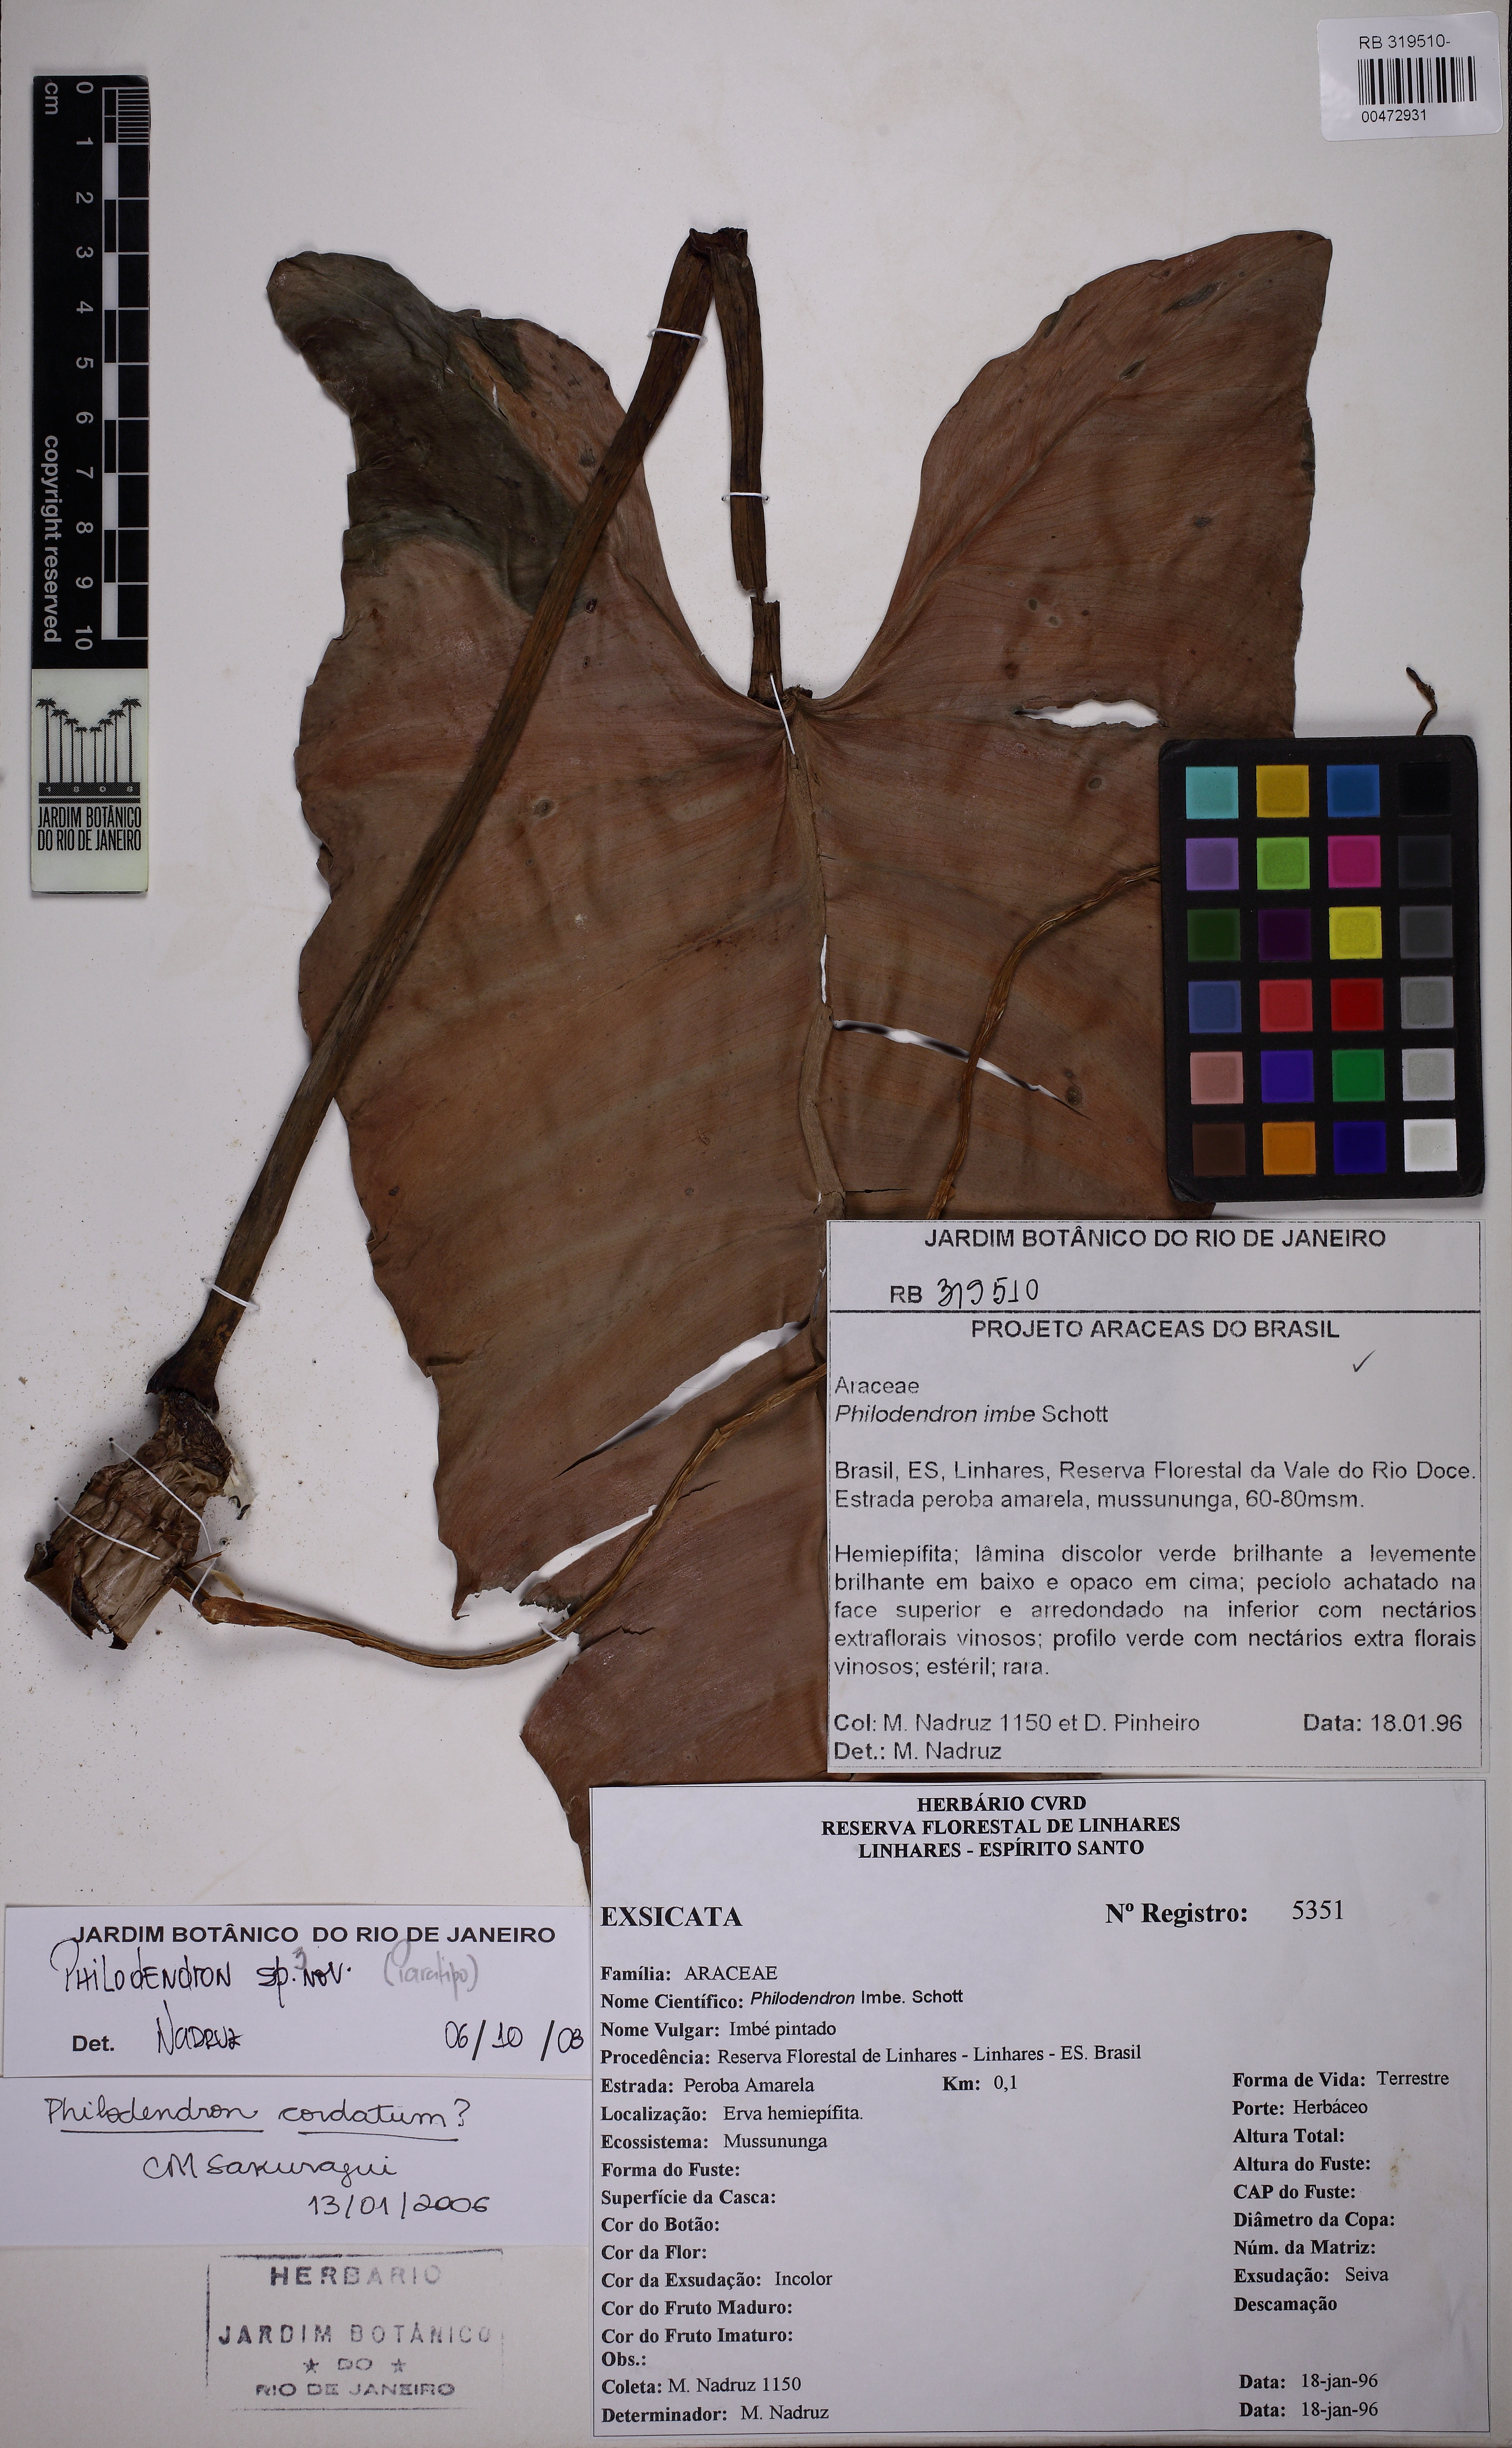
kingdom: Plantae
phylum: Tracheophyta
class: Liliopsida
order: Alismatales
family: Araceae
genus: Philodendron
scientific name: Philodendron cordatum
